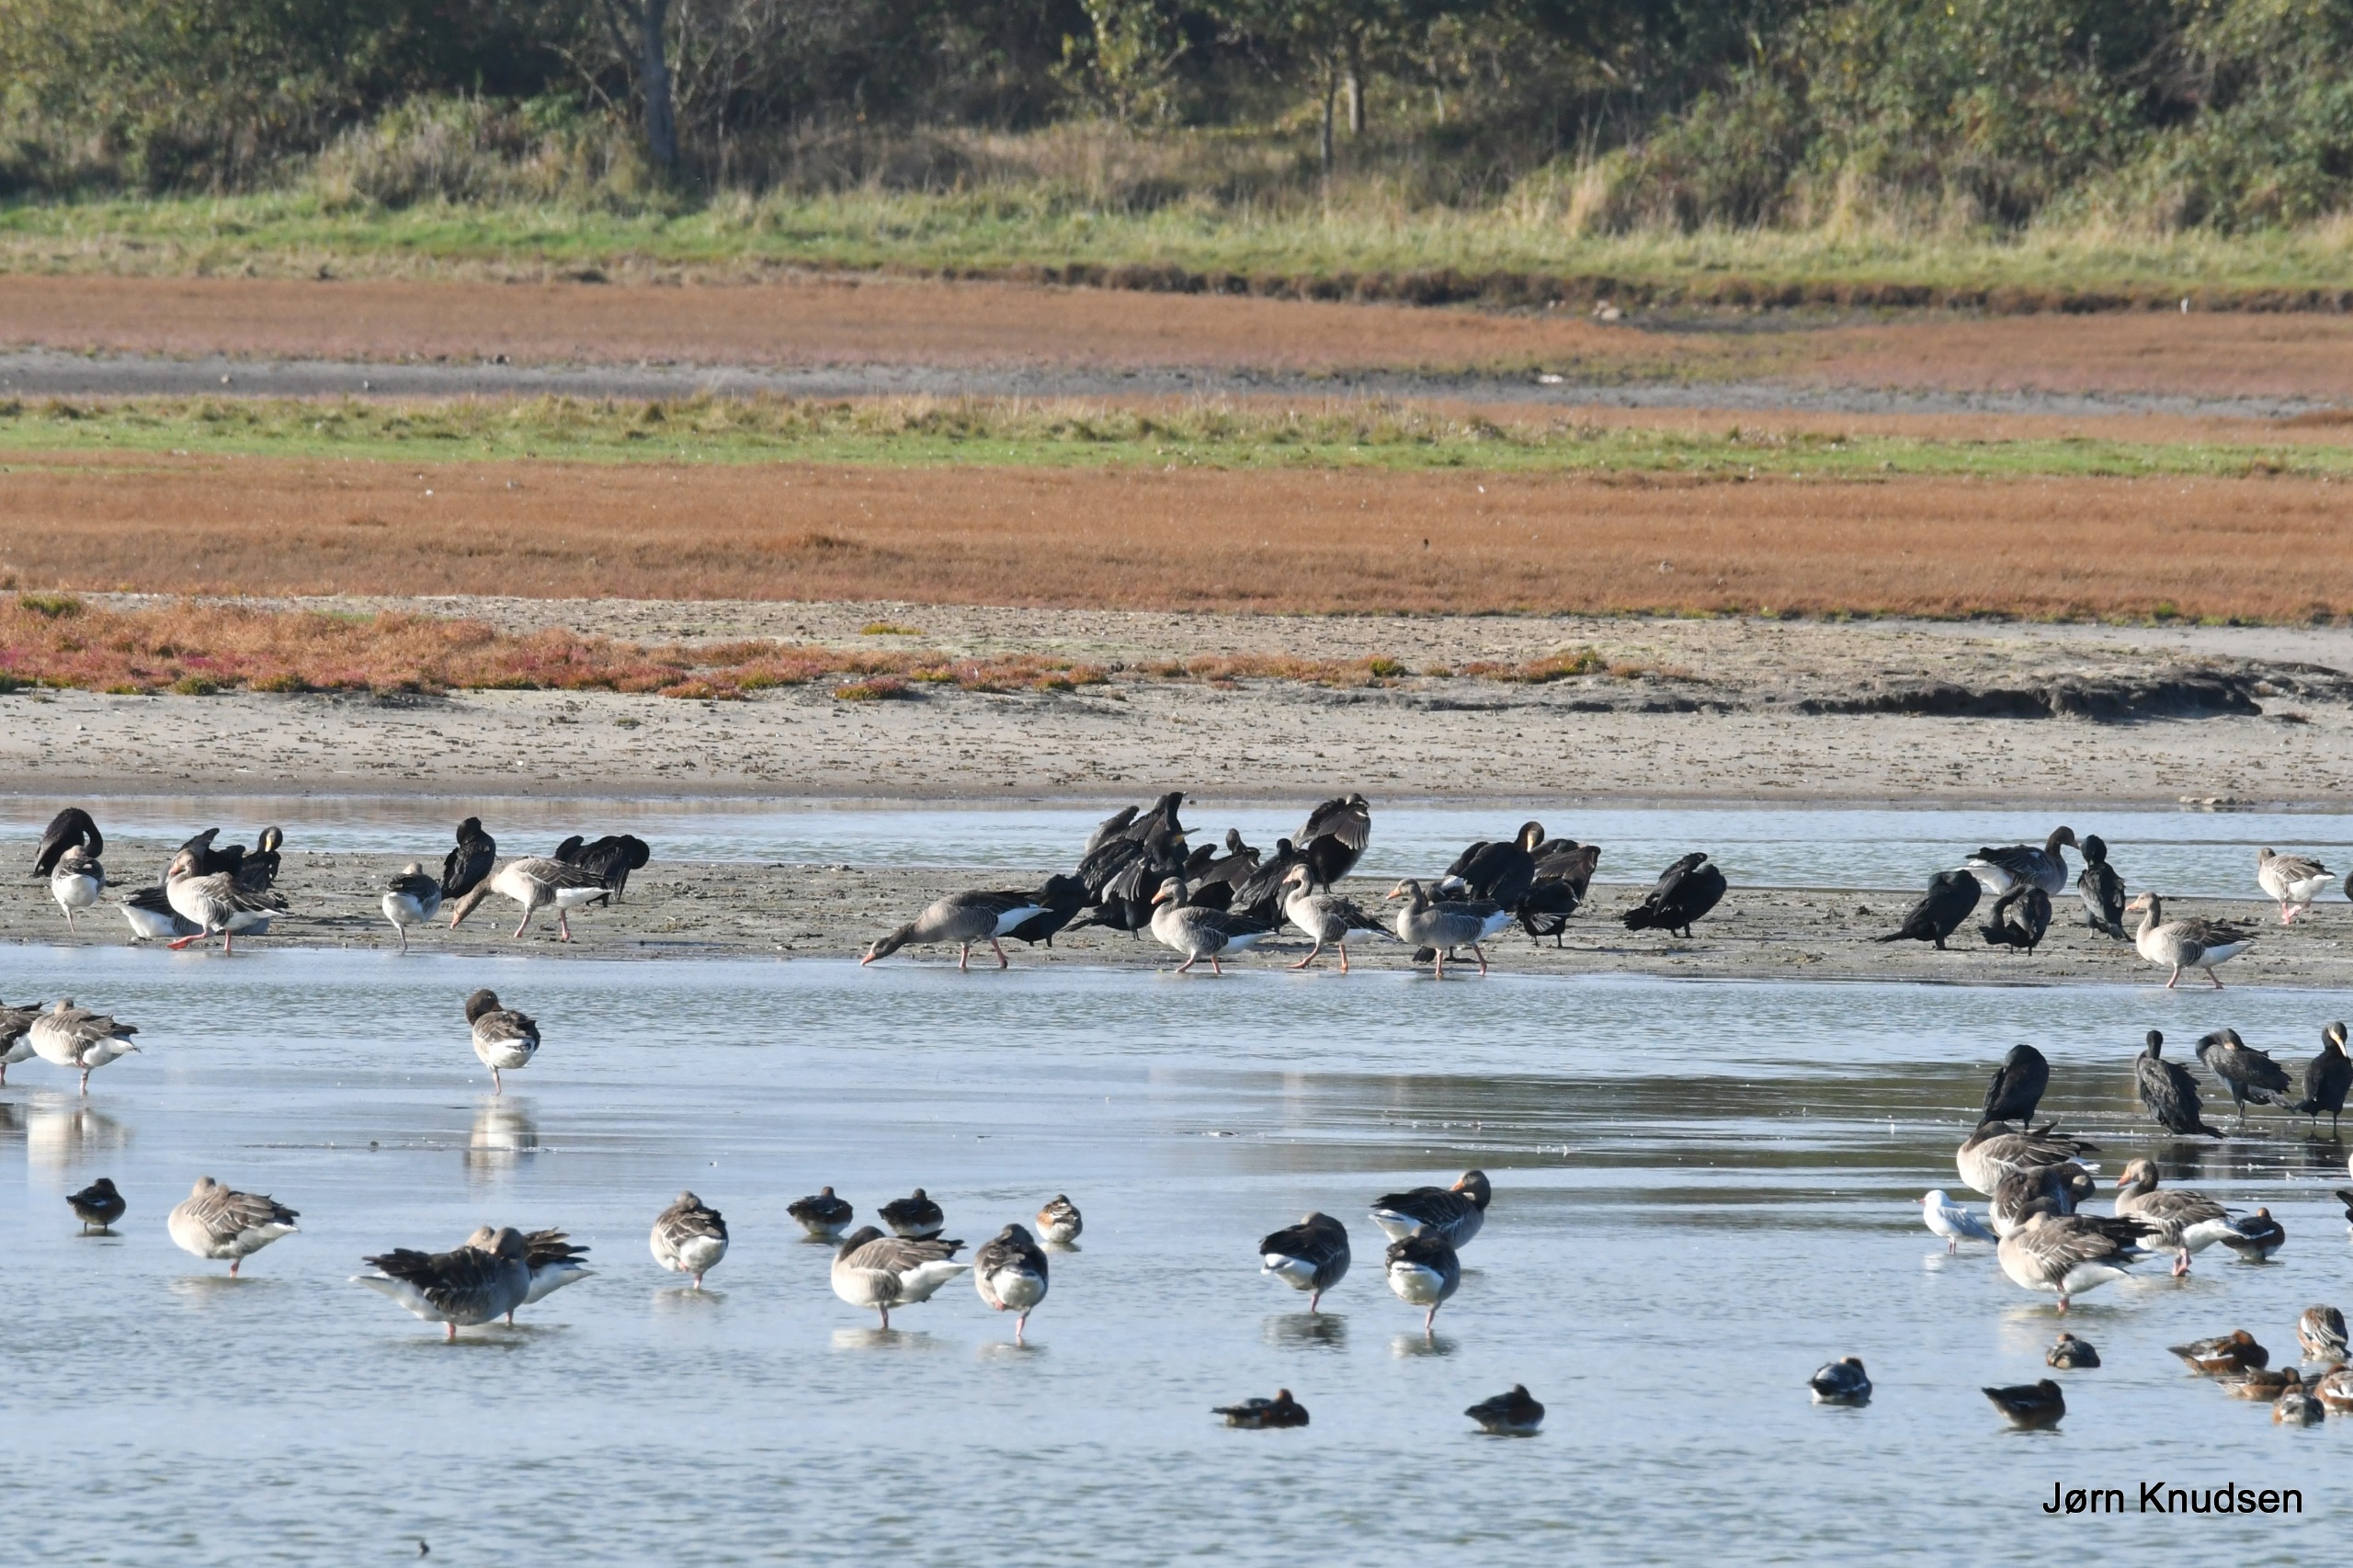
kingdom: Animalia
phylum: Chordata
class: Aves
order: Suliformes
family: Phalacrocoracidae
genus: Phalacrocorax
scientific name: Phalacrocorax carbo
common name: Skarv
